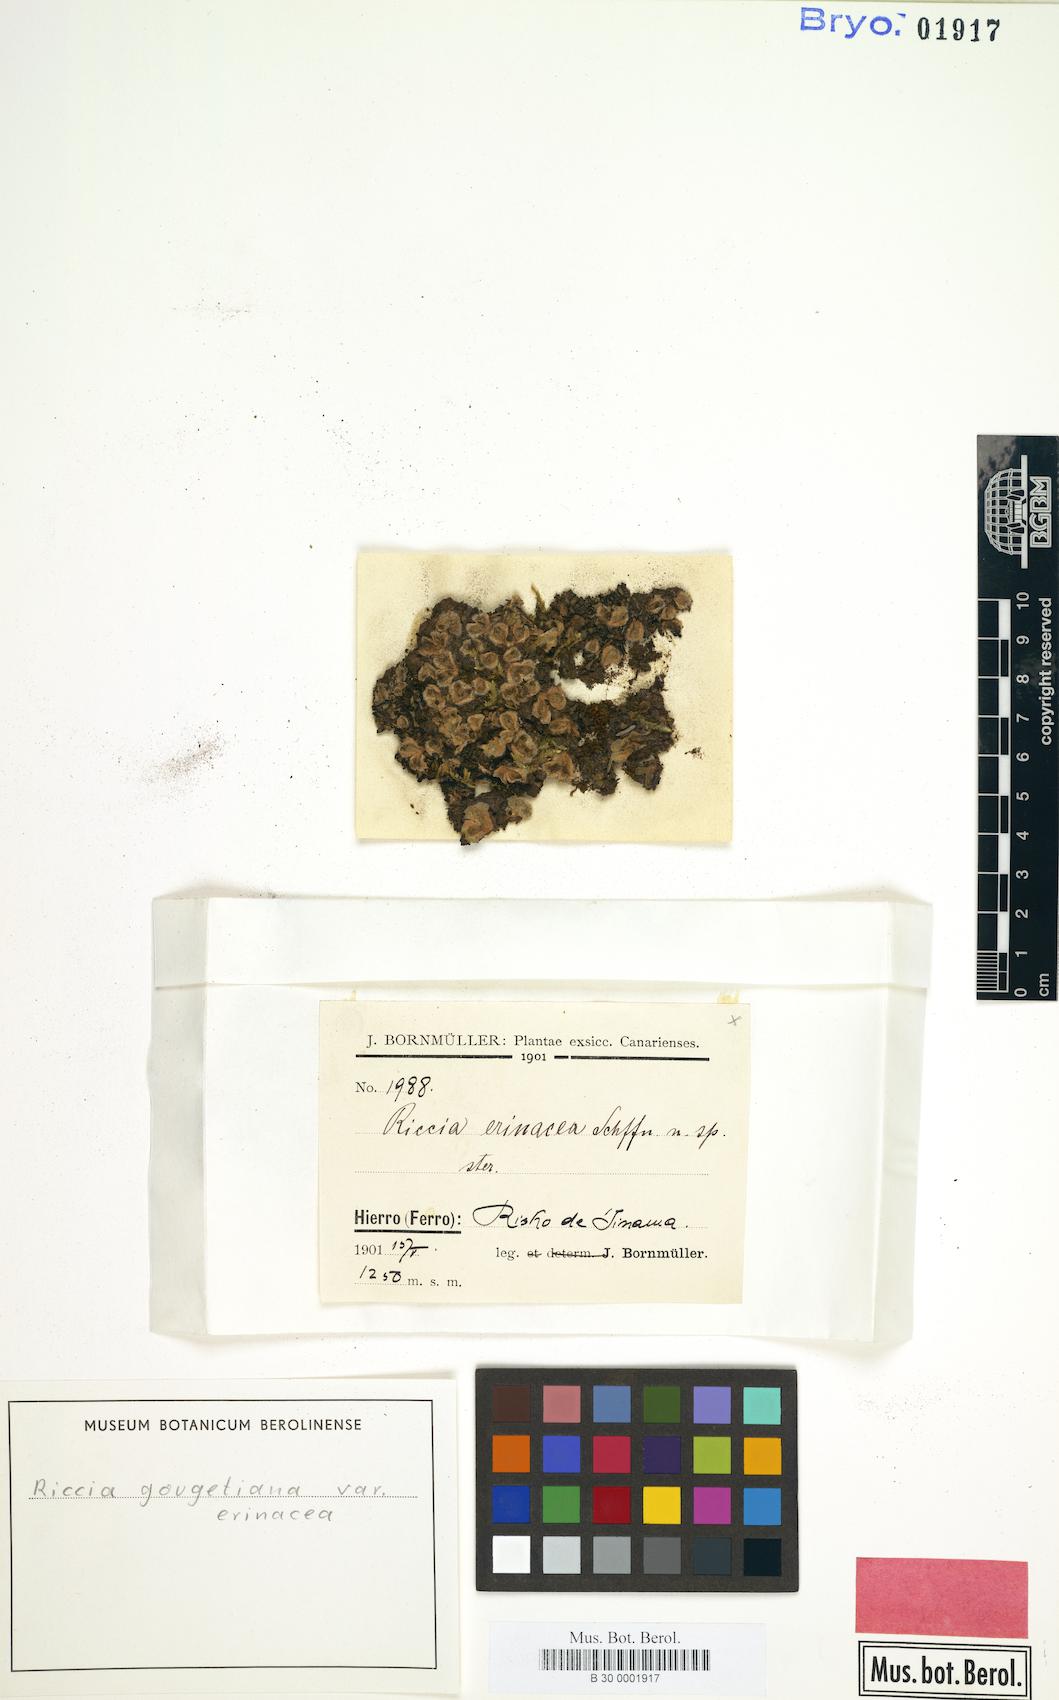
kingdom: Plantae
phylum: Marchantiophyta
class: Marchantiopsida
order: Marchantiales
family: Ricciaceae
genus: Riccia
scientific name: Riccia gougetiana
